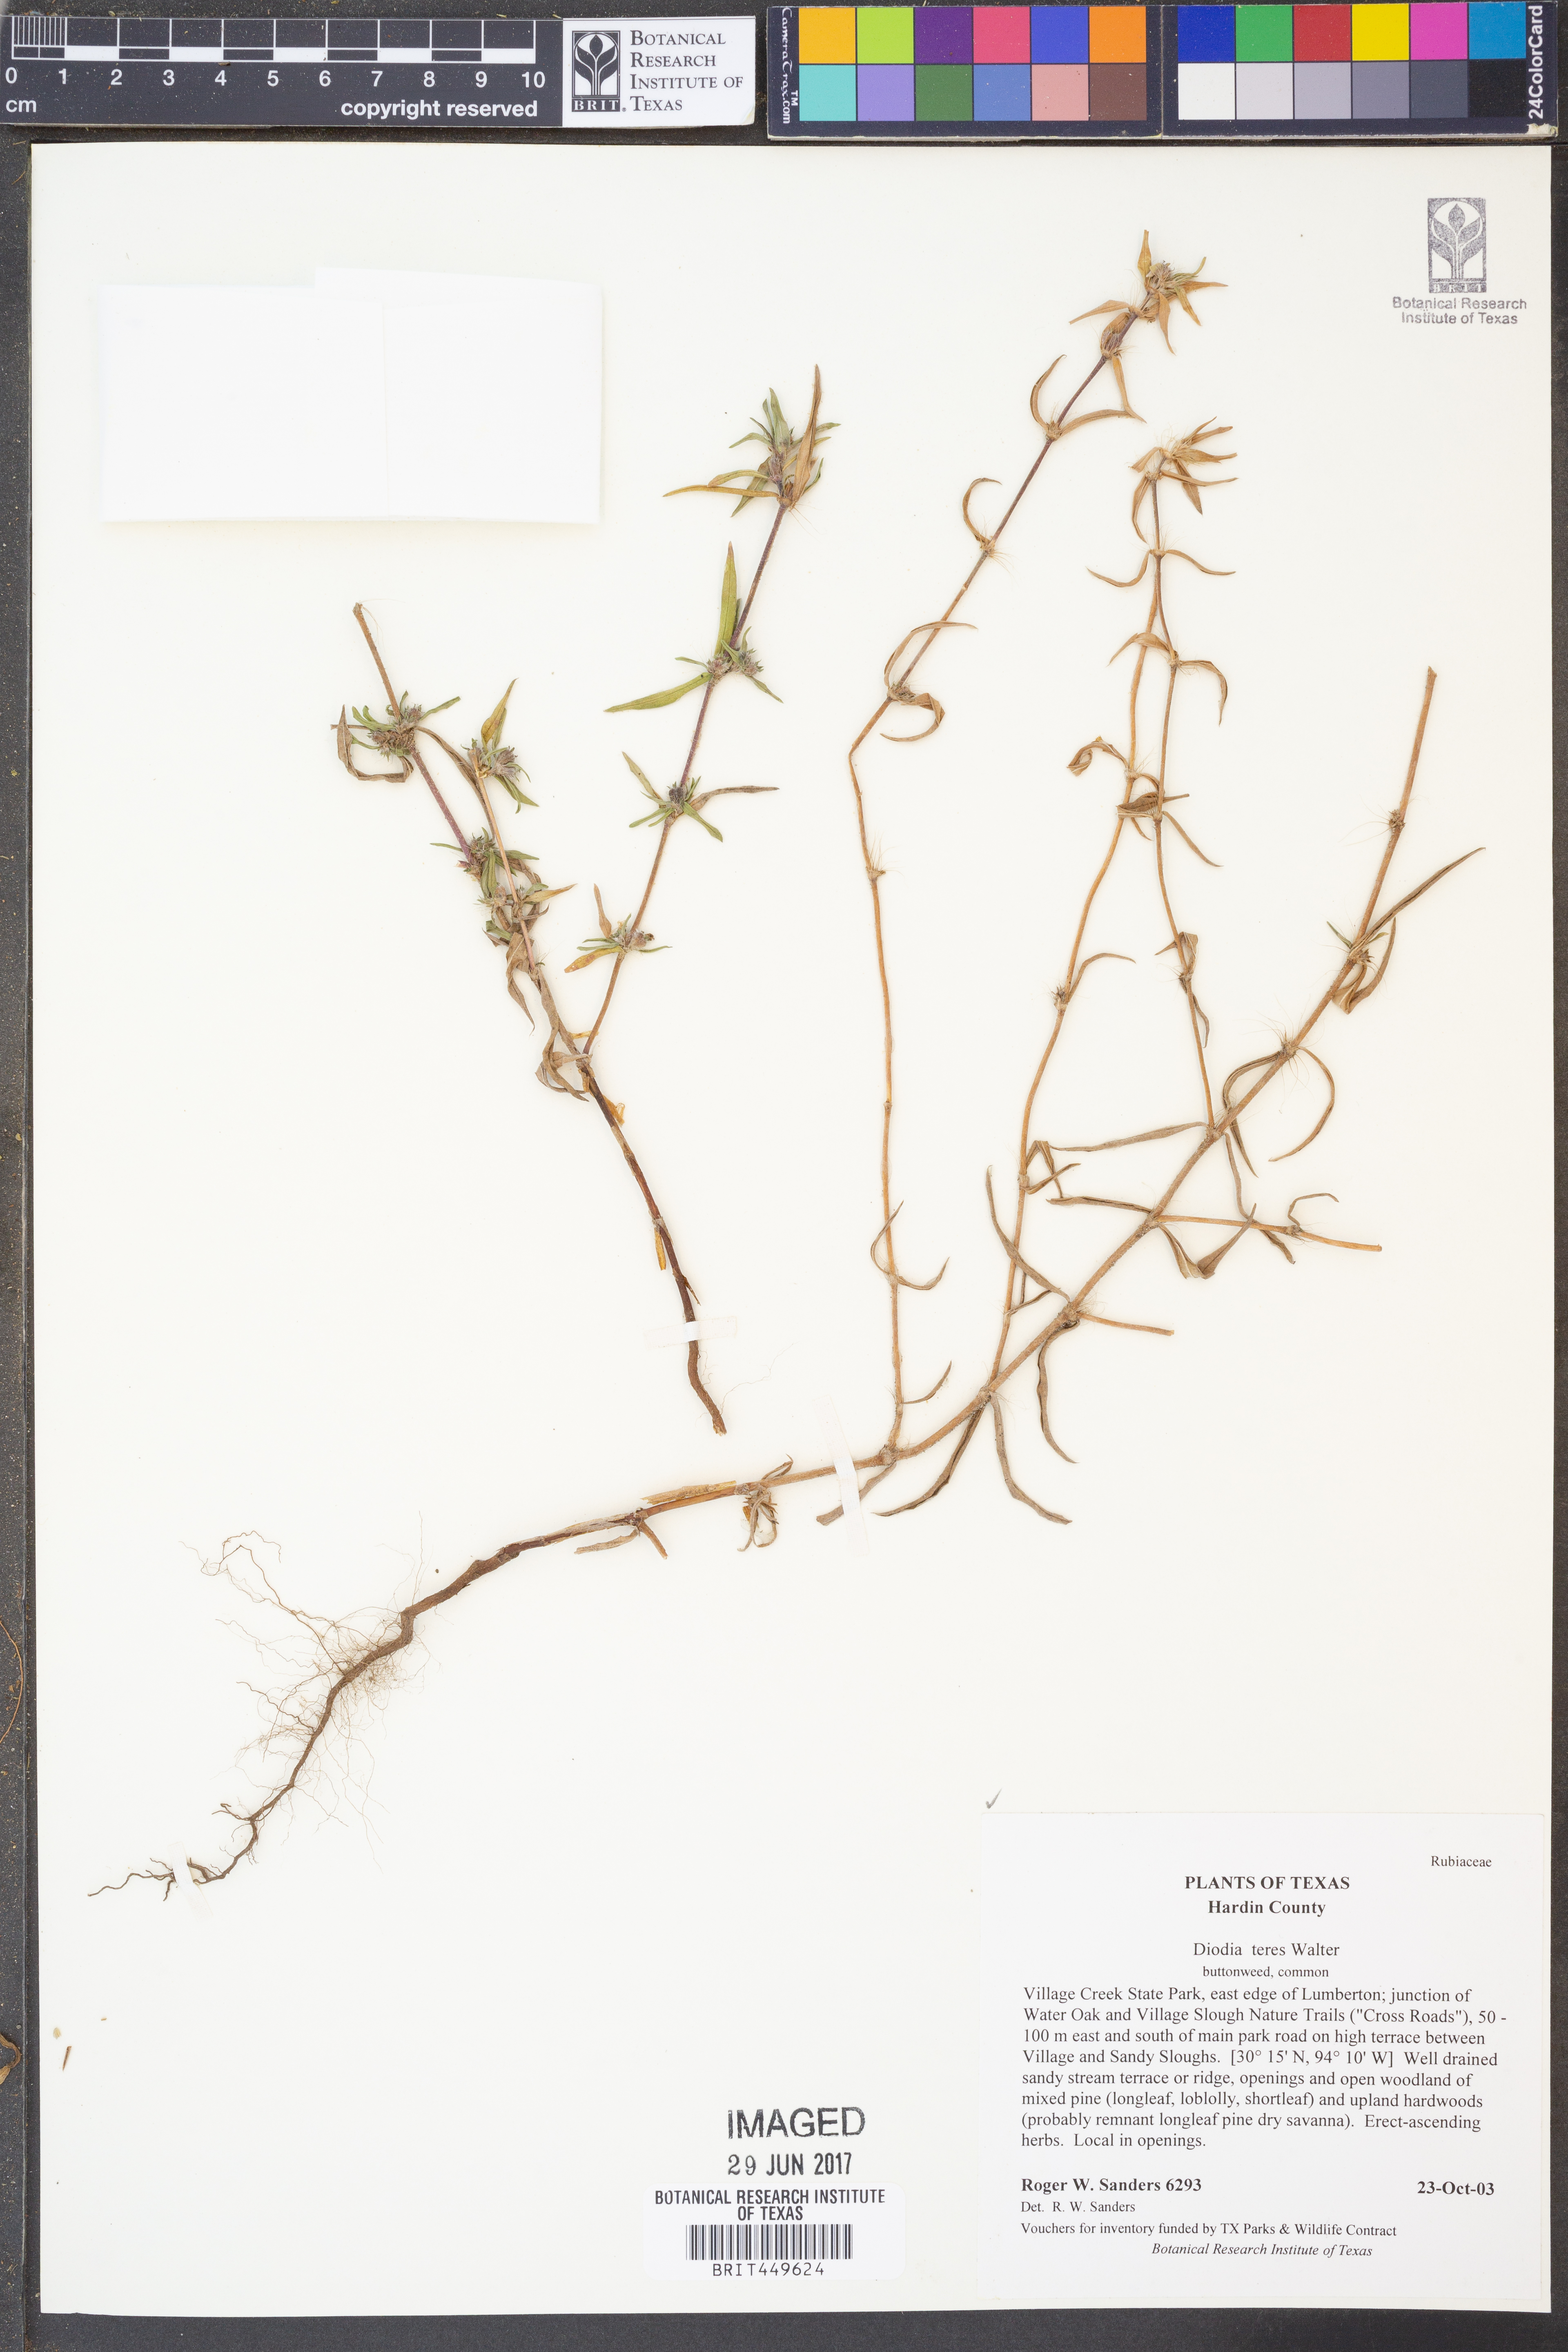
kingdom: Plantae
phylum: Tracheophyta
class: Magnoliopsida
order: Gentianales
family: Rubiaceae
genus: Hexasepalum
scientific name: Hexasepalum teres
